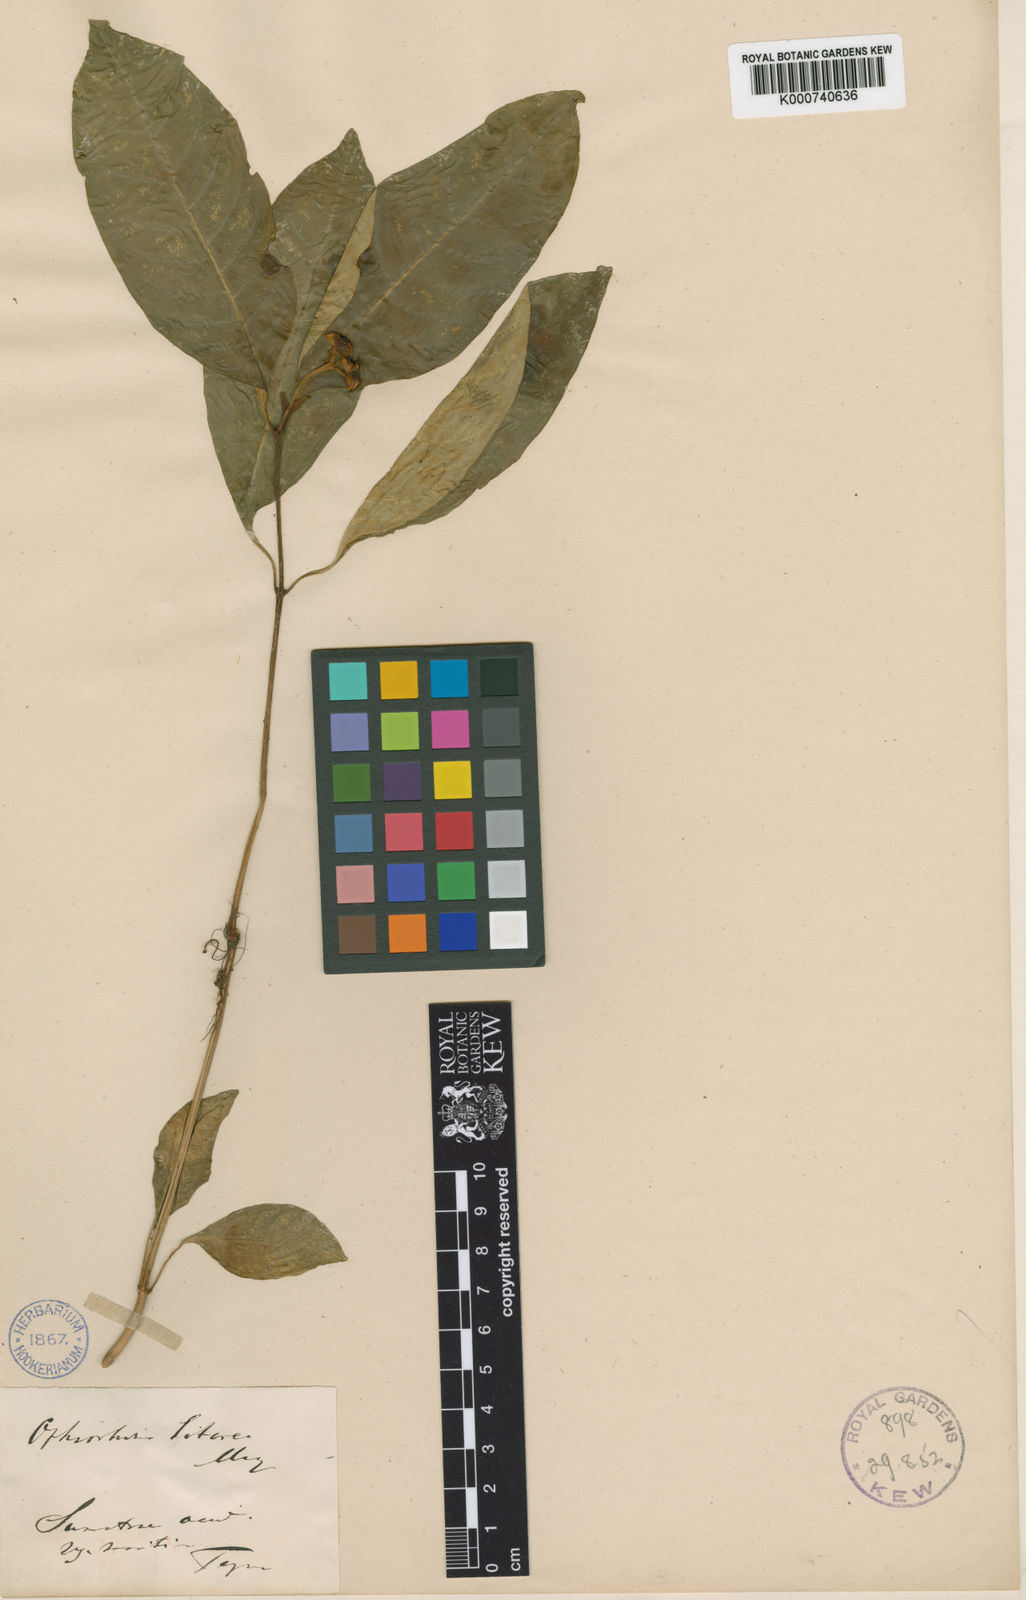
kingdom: Plantae
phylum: Tracheophyta
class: Magnoliopsida
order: Gentianales
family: Rubiaceae
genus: Ophiorrhiza
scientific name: Ophiorrhiza littorea
